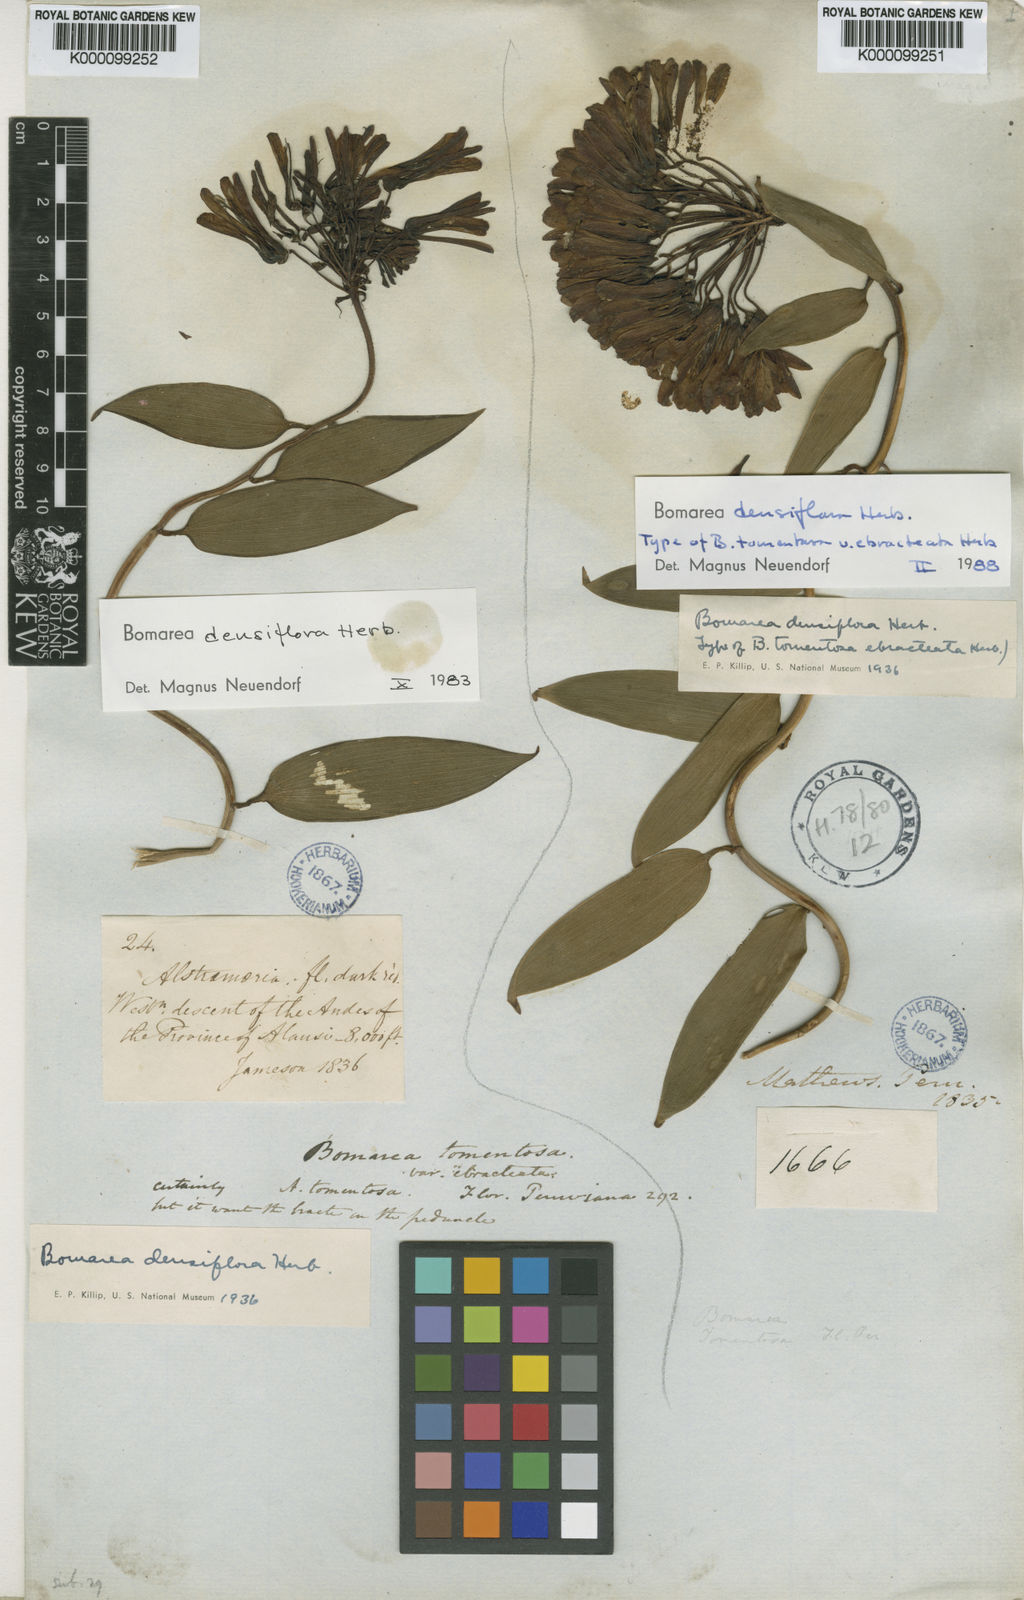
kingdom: Plantae
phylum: Tracheophyta
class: Liliopsida
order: Liliales
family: Alstroemeriaceae
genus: Bomarea
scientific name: Bomarea densiflora
